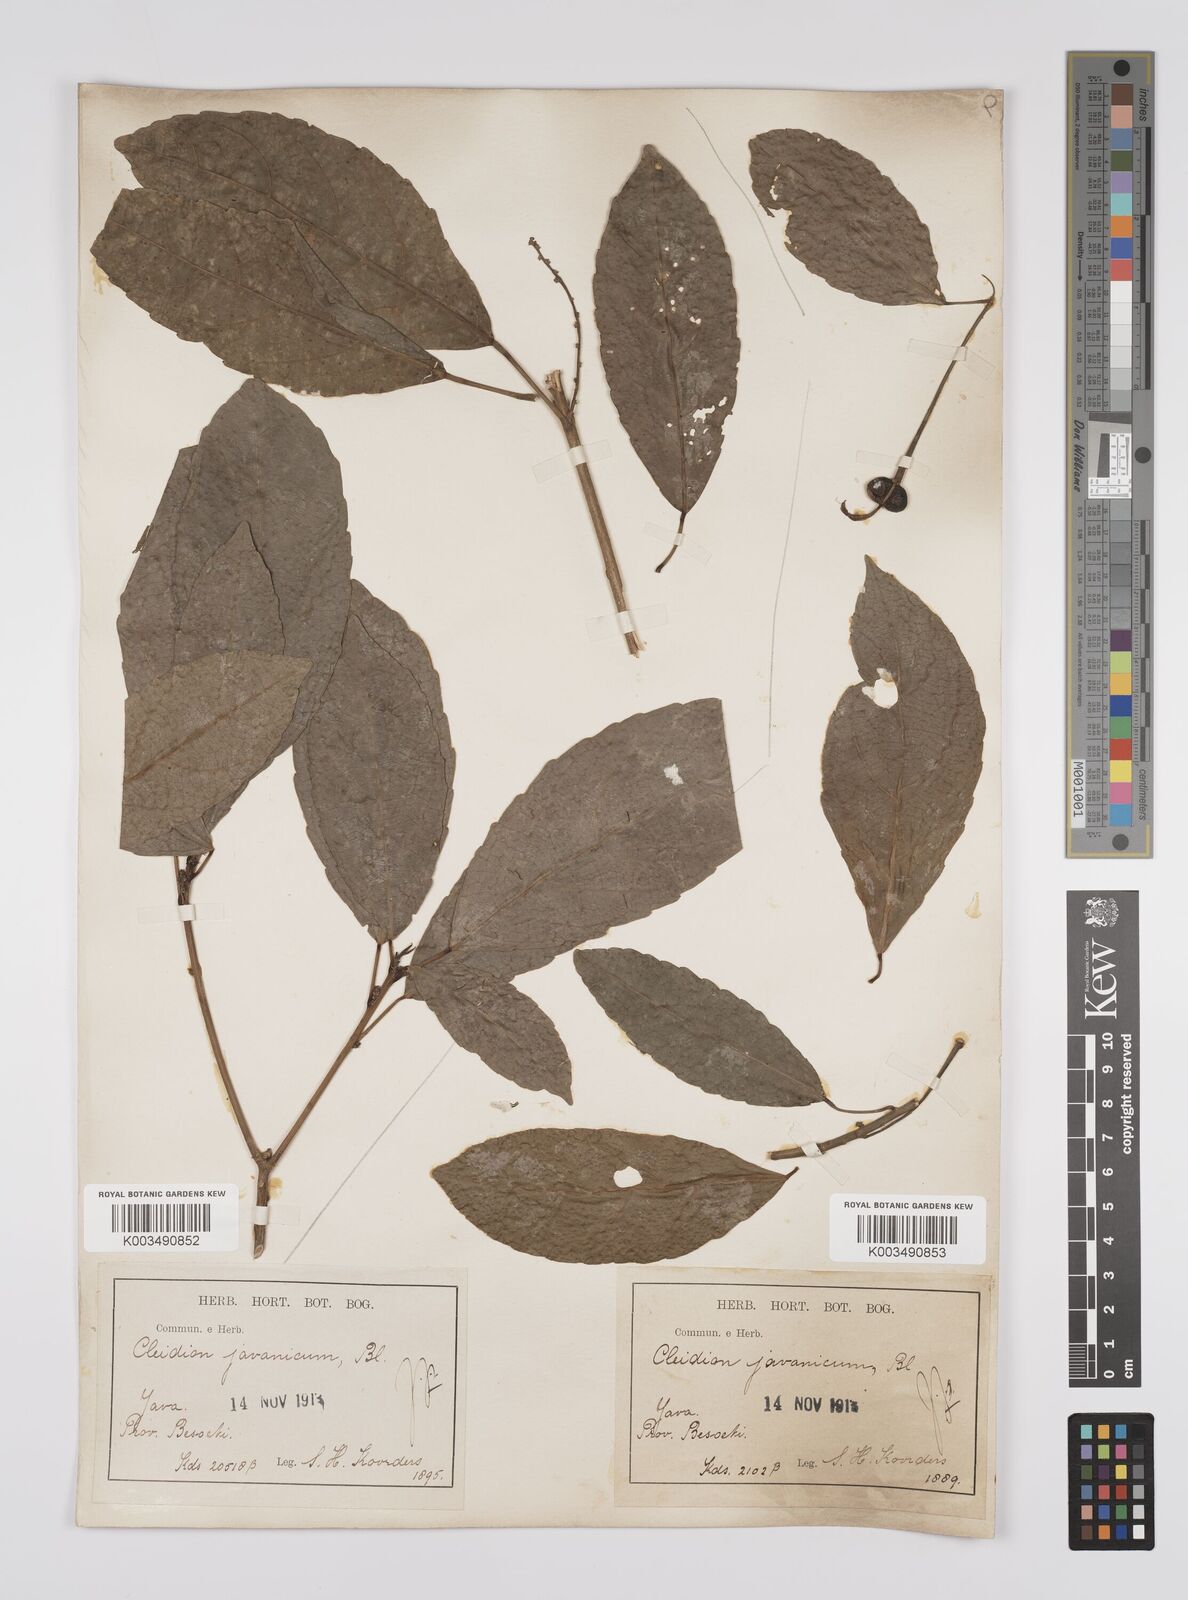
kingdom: Plantae
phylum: Tracheophyta
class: Magnoliopsida
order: Malpighiales
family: Euphorbiaceae
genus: Acalypha
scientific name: Acalypha spiciflora
